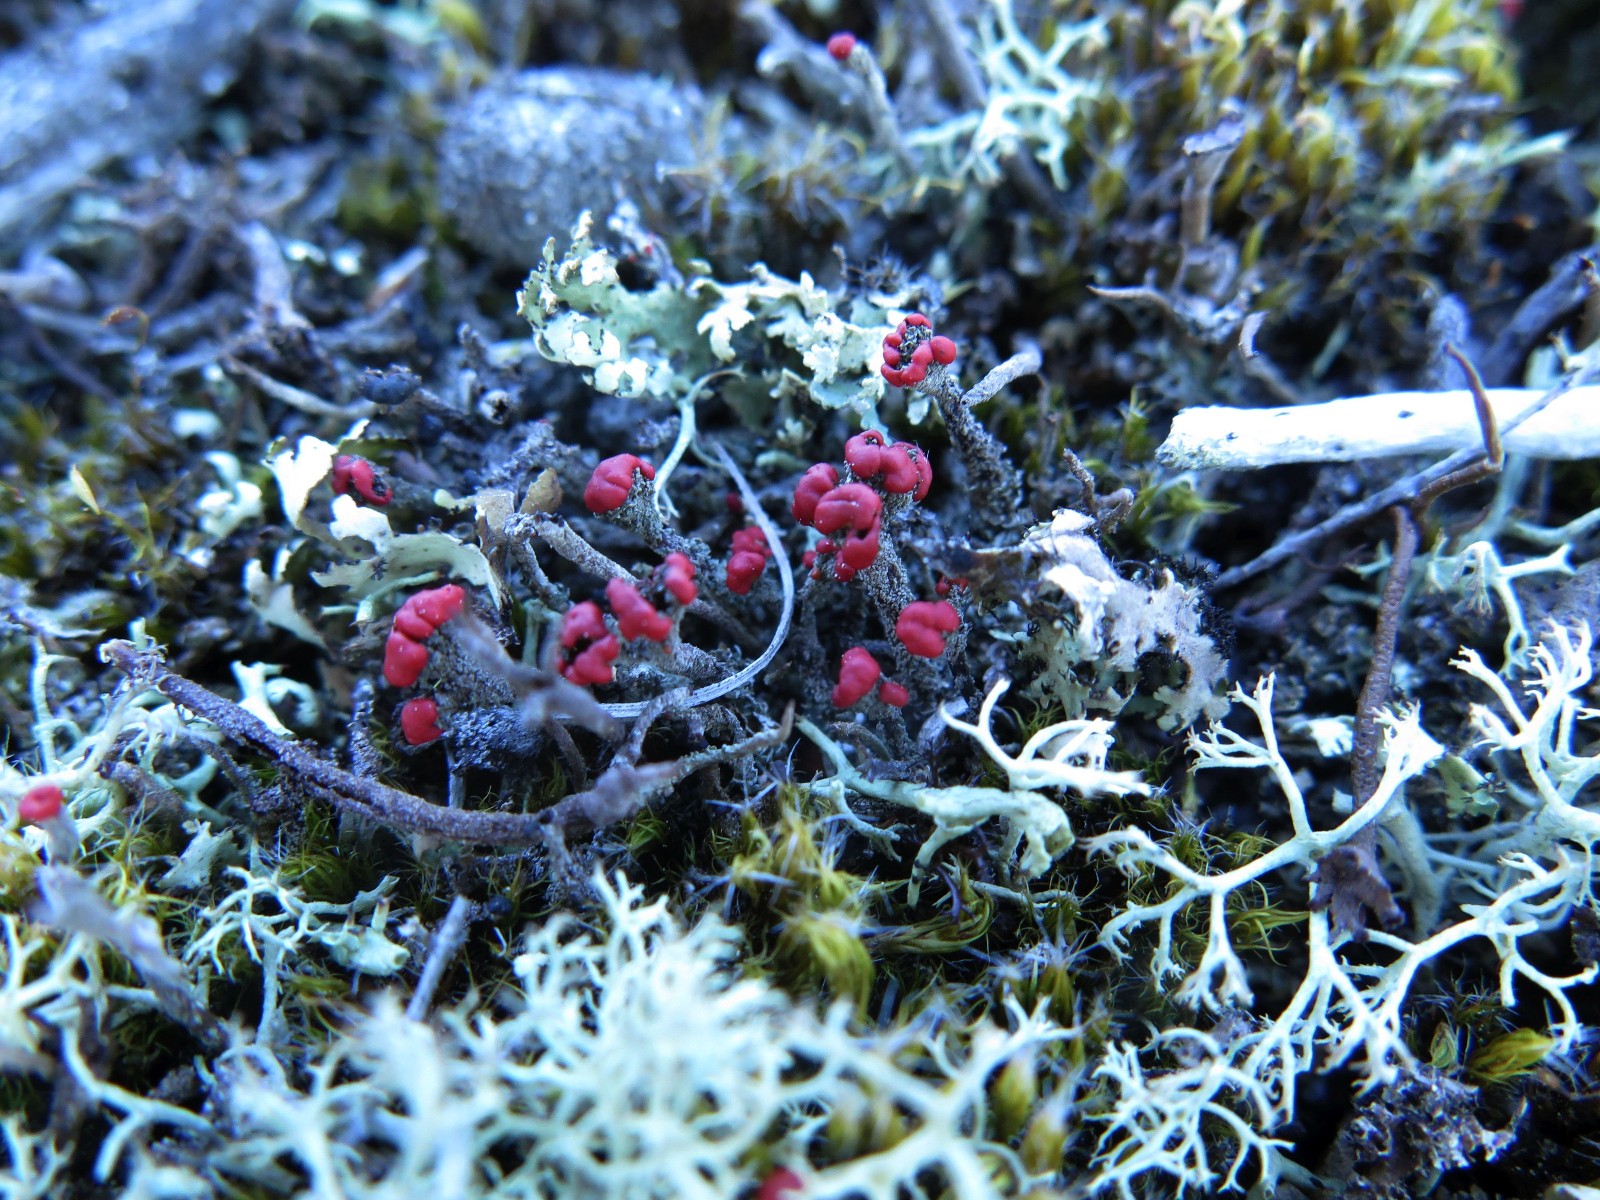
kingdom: Fungi
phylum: Ascomycota
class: Lecanoromycetes
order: Lecanorales
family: Cladoniaceae
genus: Cladonia
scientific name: Cladonia floerkeana
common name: lakrød bægerlav
